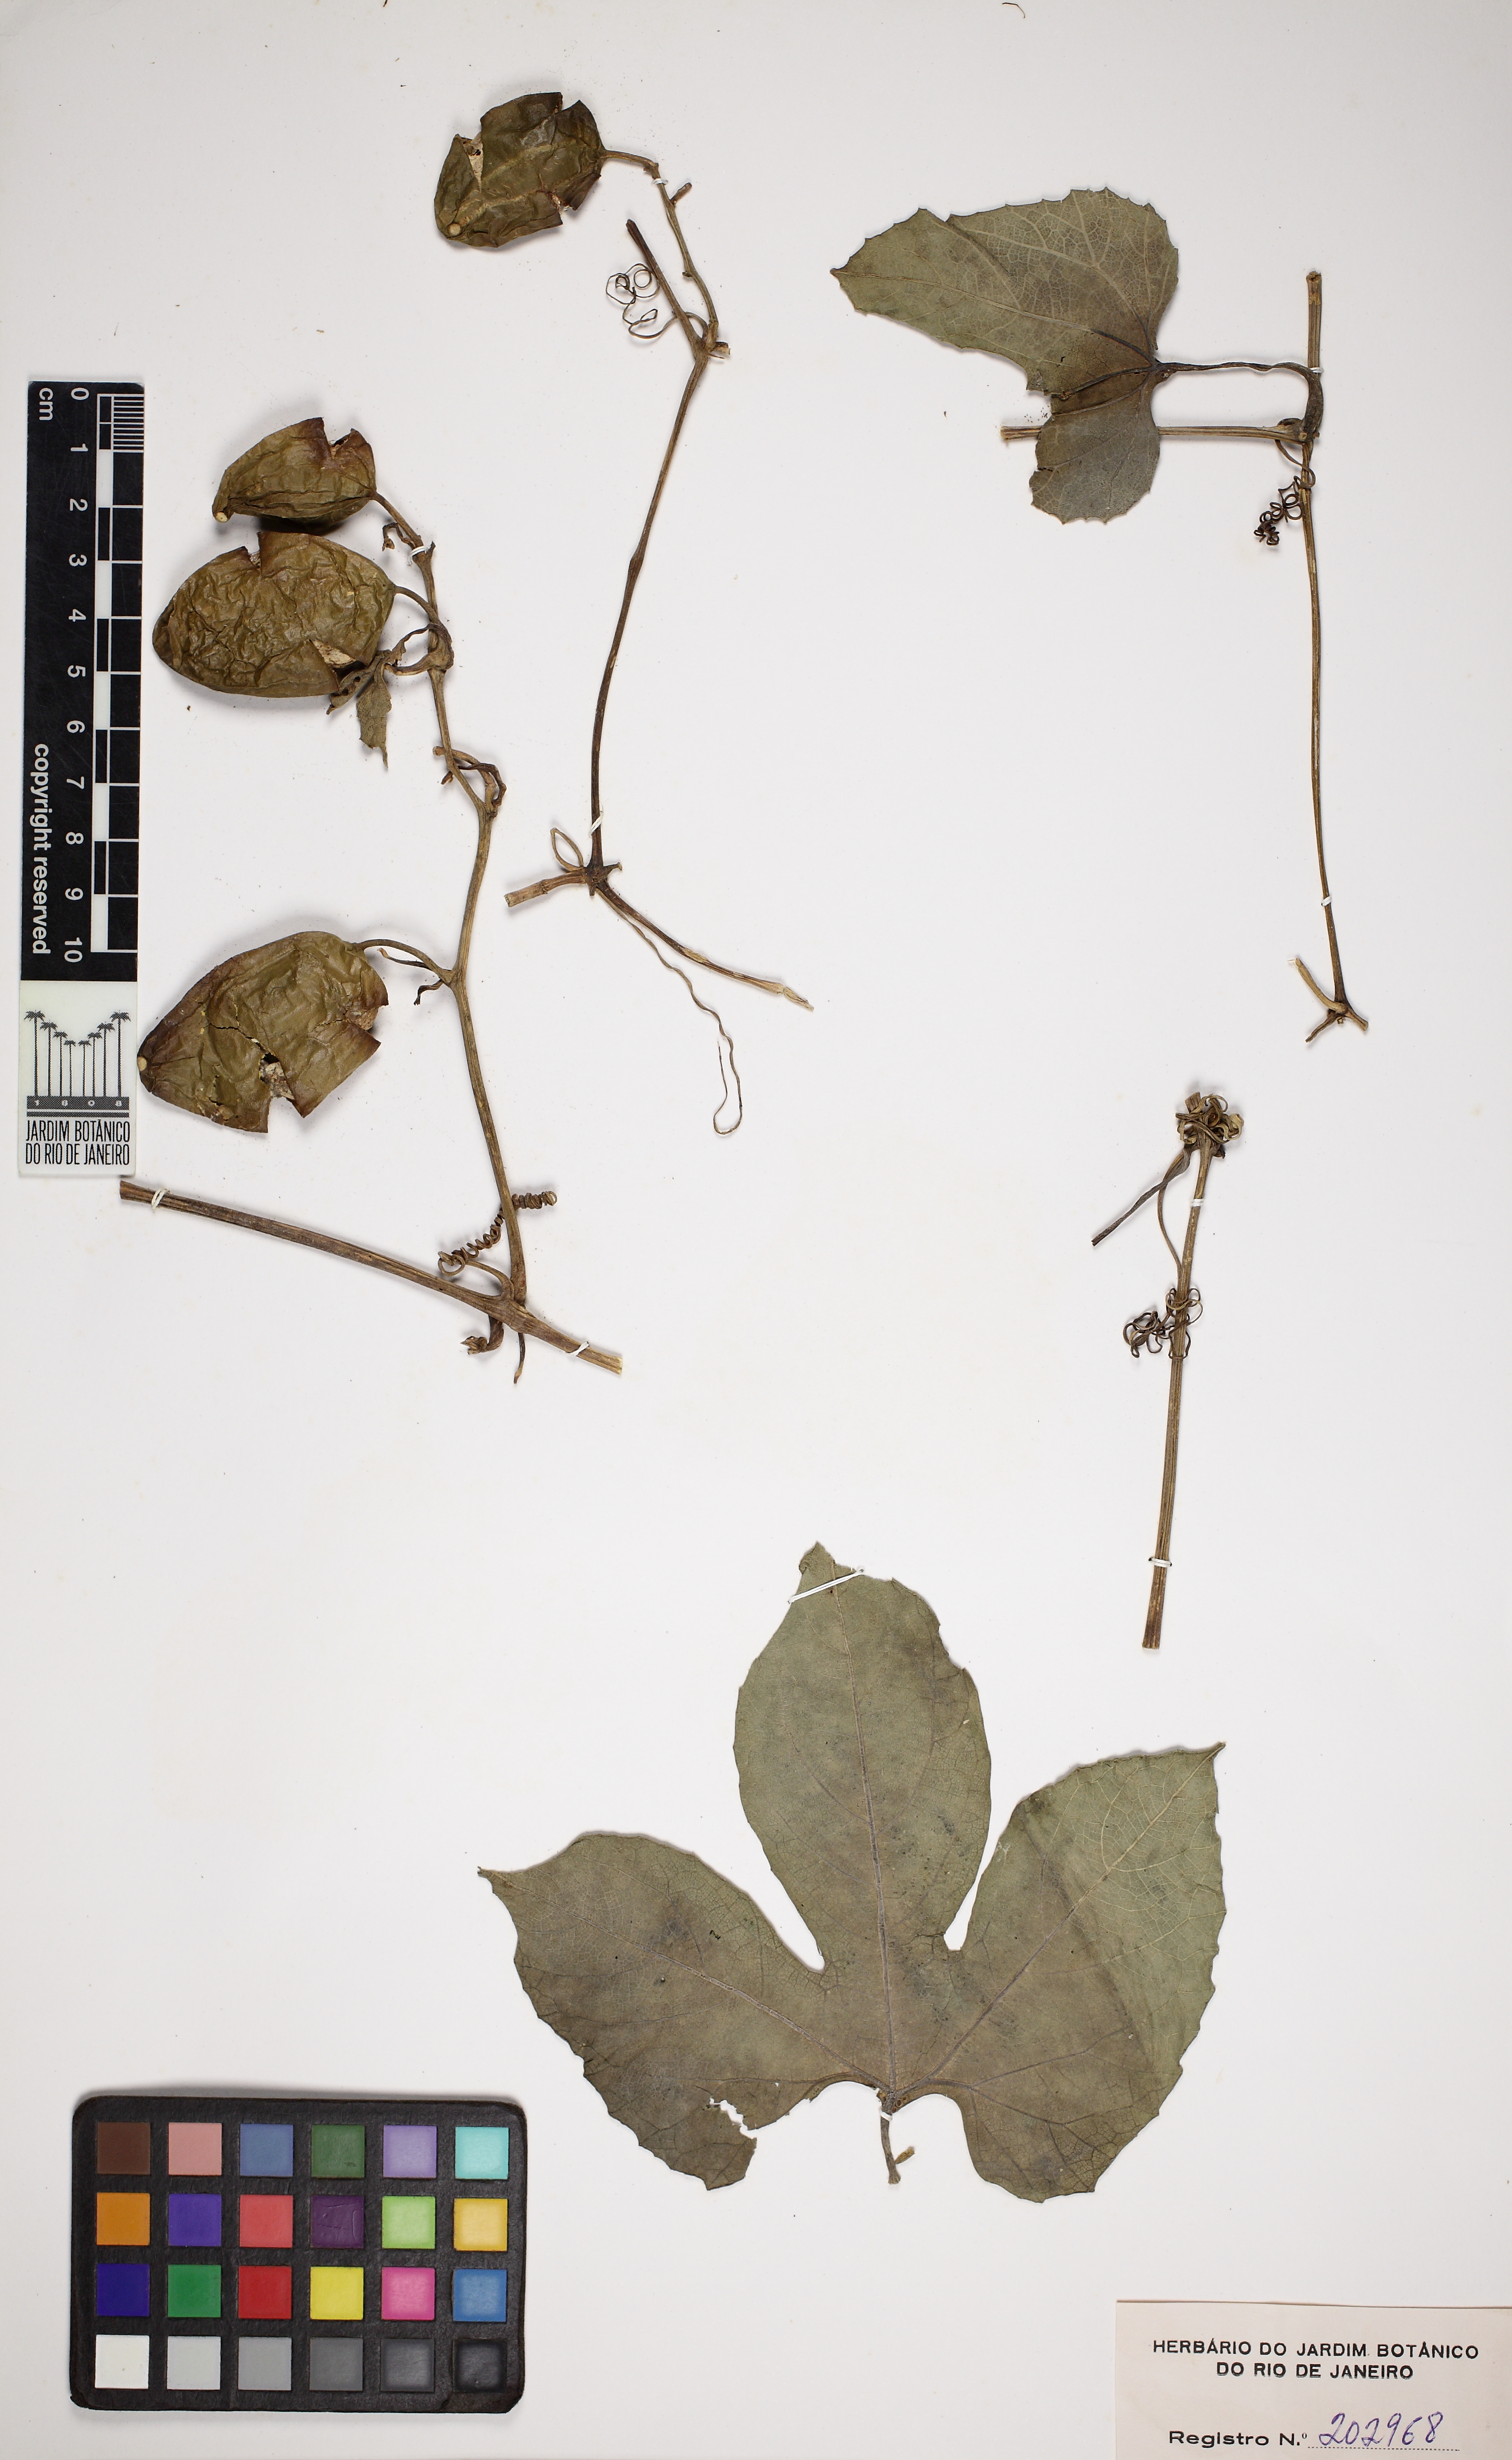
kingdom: Plantae
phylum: Tracheophyta
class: Magnoliopsida
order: Cucurbitales
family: Cucurbitaceae
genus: Cayaponia
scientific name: Cayaponia cruegeri
